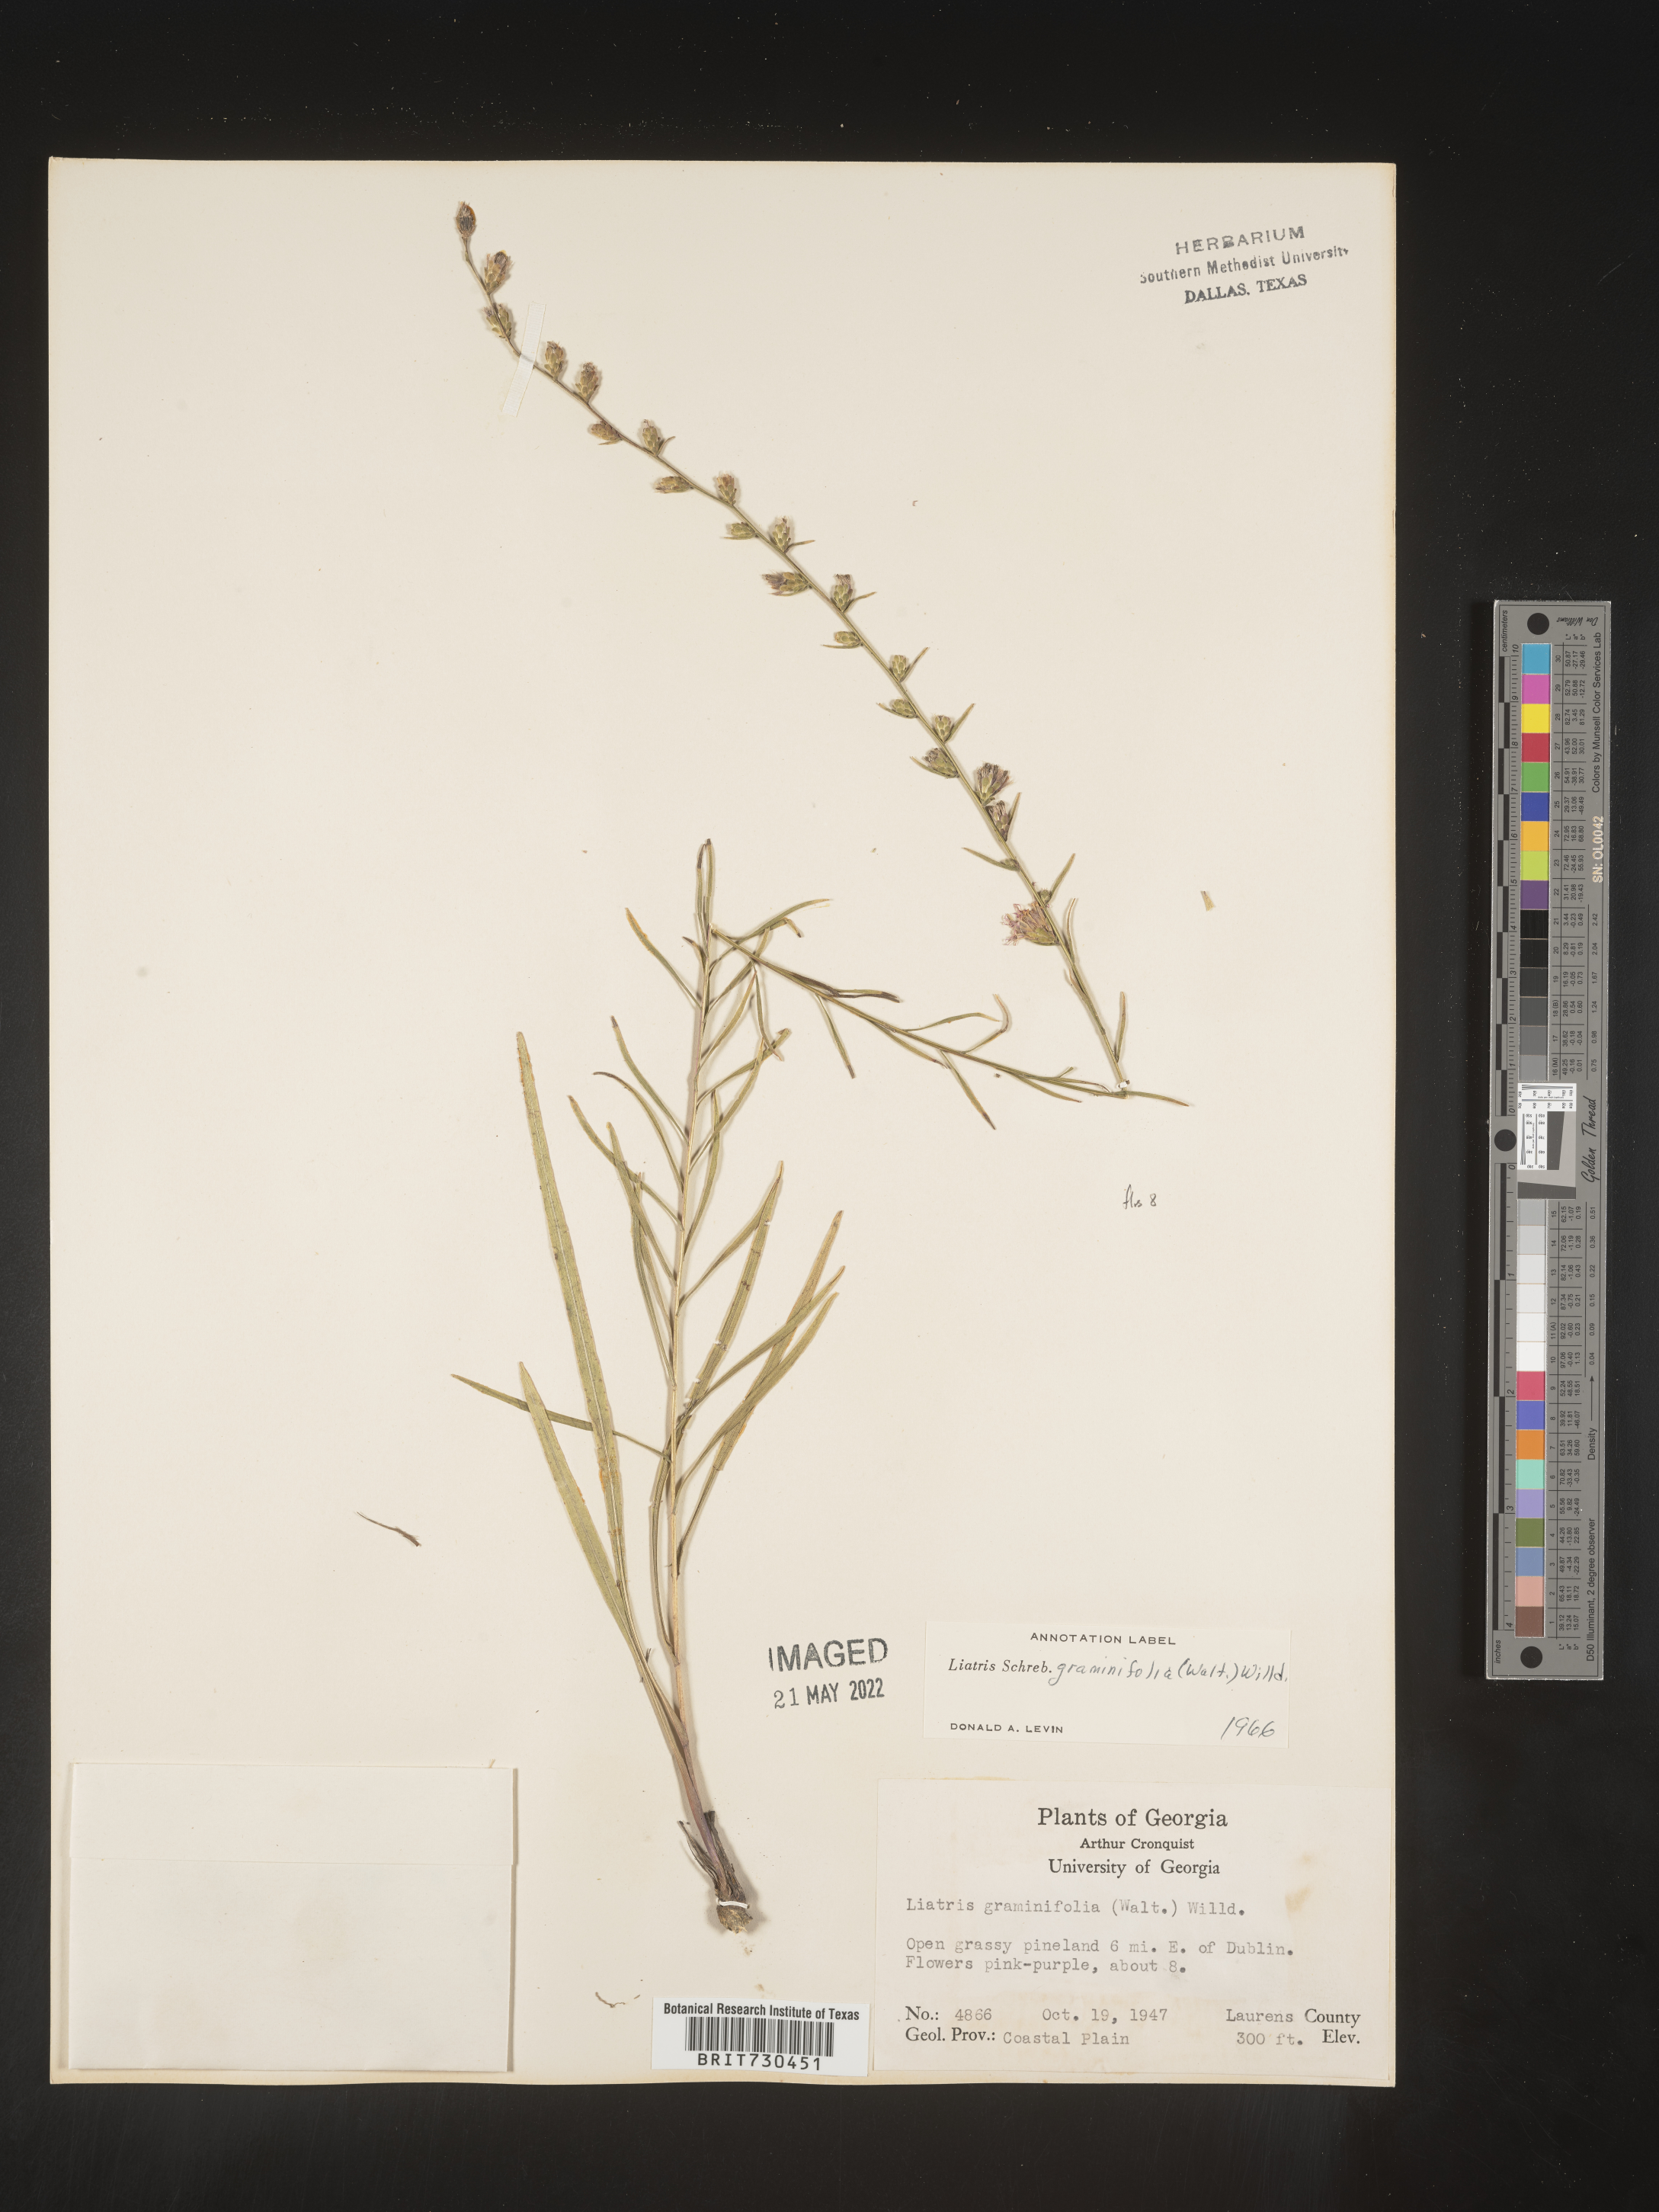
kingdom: Plantae
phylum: Tracheophyta
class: Magnoliopsida
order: Asterales
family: Asteraceae
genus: Liatris
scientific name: Liatris elegantula
